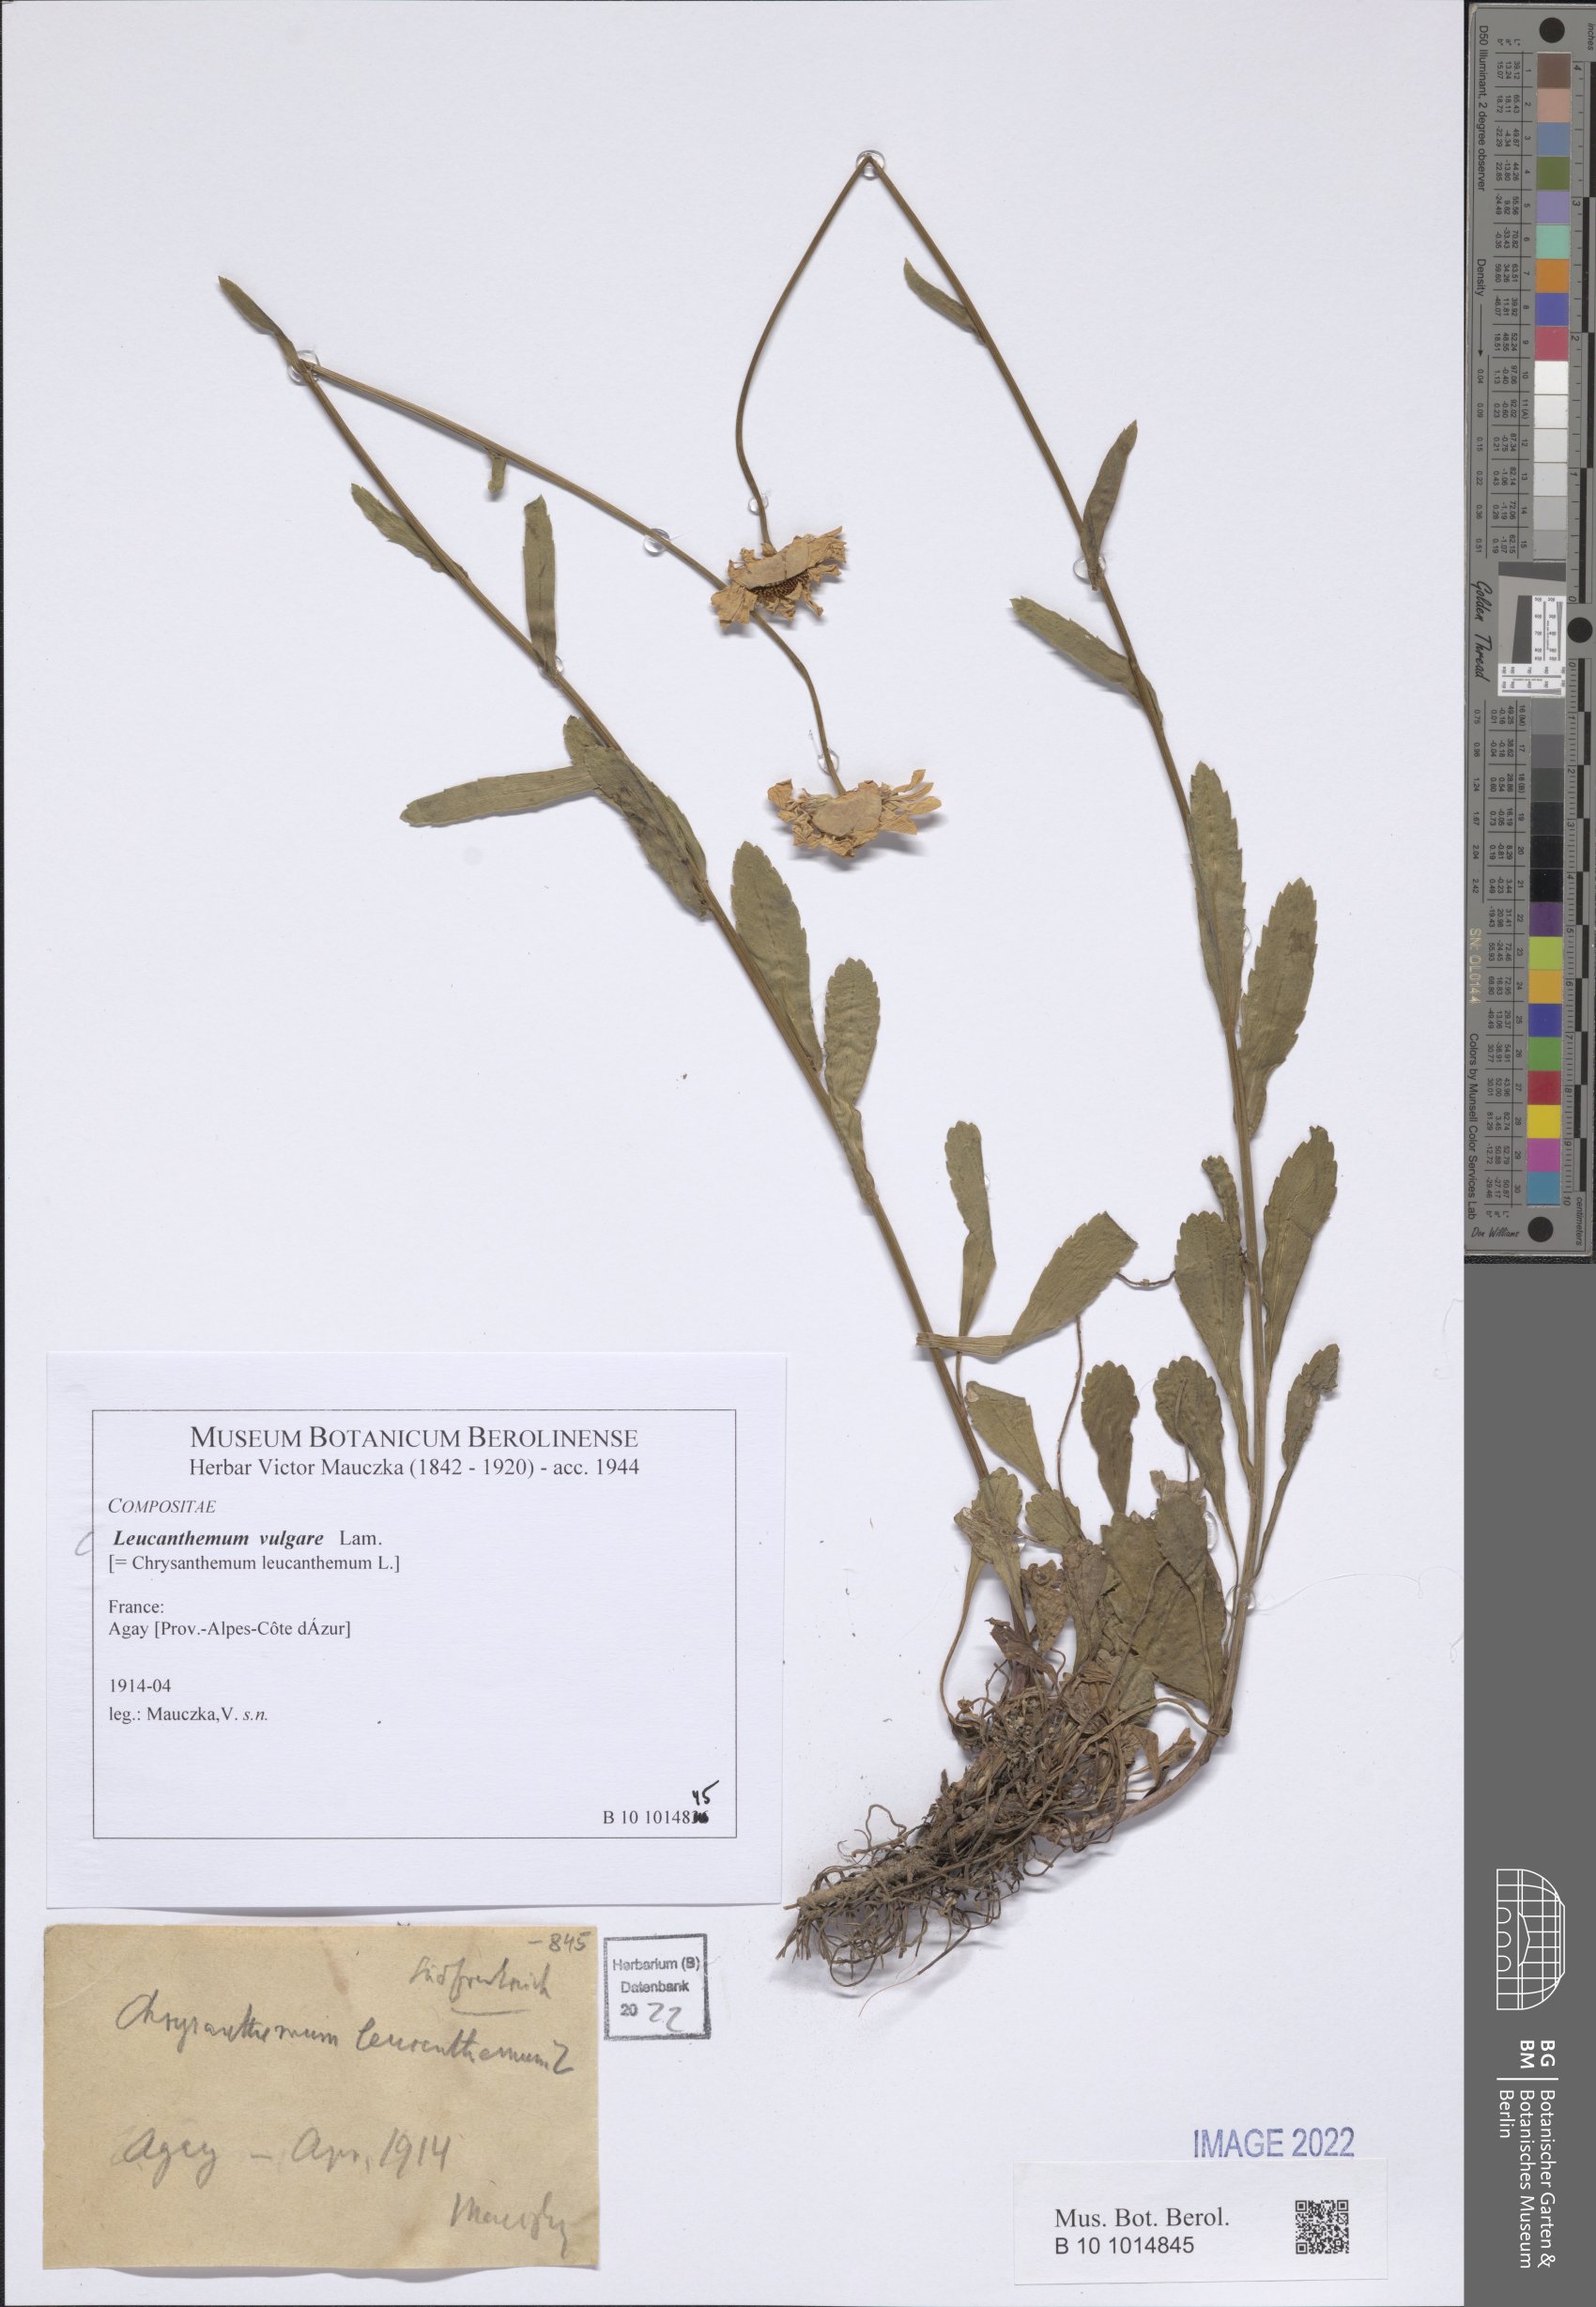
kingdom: Plantae
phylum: Tracheophyta
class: Magnoliopsida
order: Asterales
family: Asteraceae
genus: Leucanthemum
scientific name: Leucanthemum esterellense
